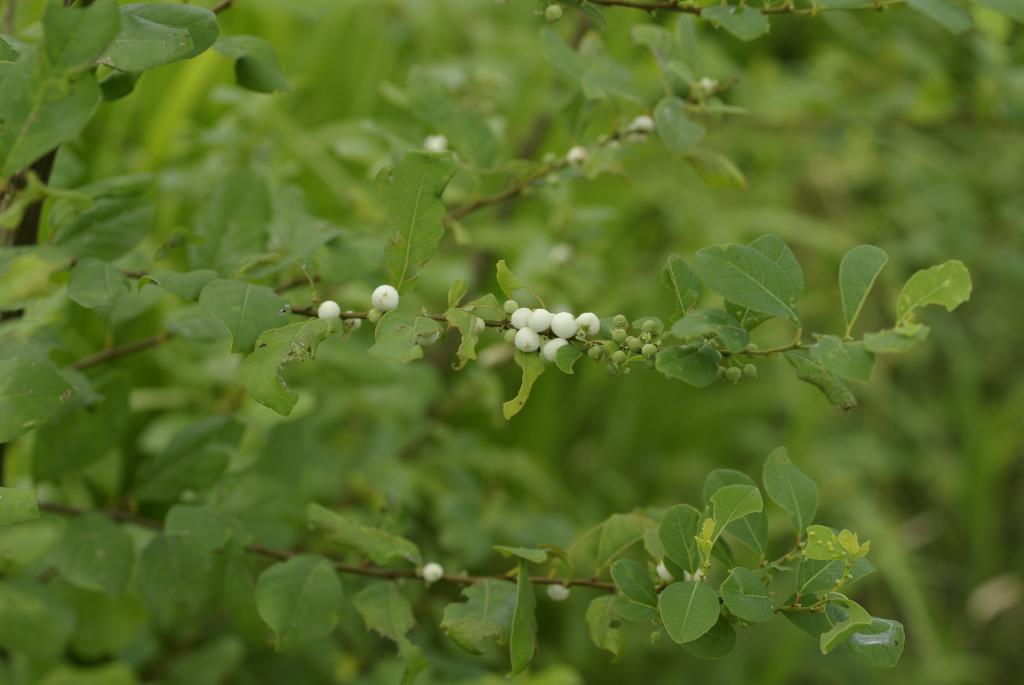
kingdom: Plantae
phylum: Tracheophyta
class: Magnoliopsida
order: Malpighiales
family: Phyllanthaceae
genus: Flueggea
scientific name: Flueggea virosa
